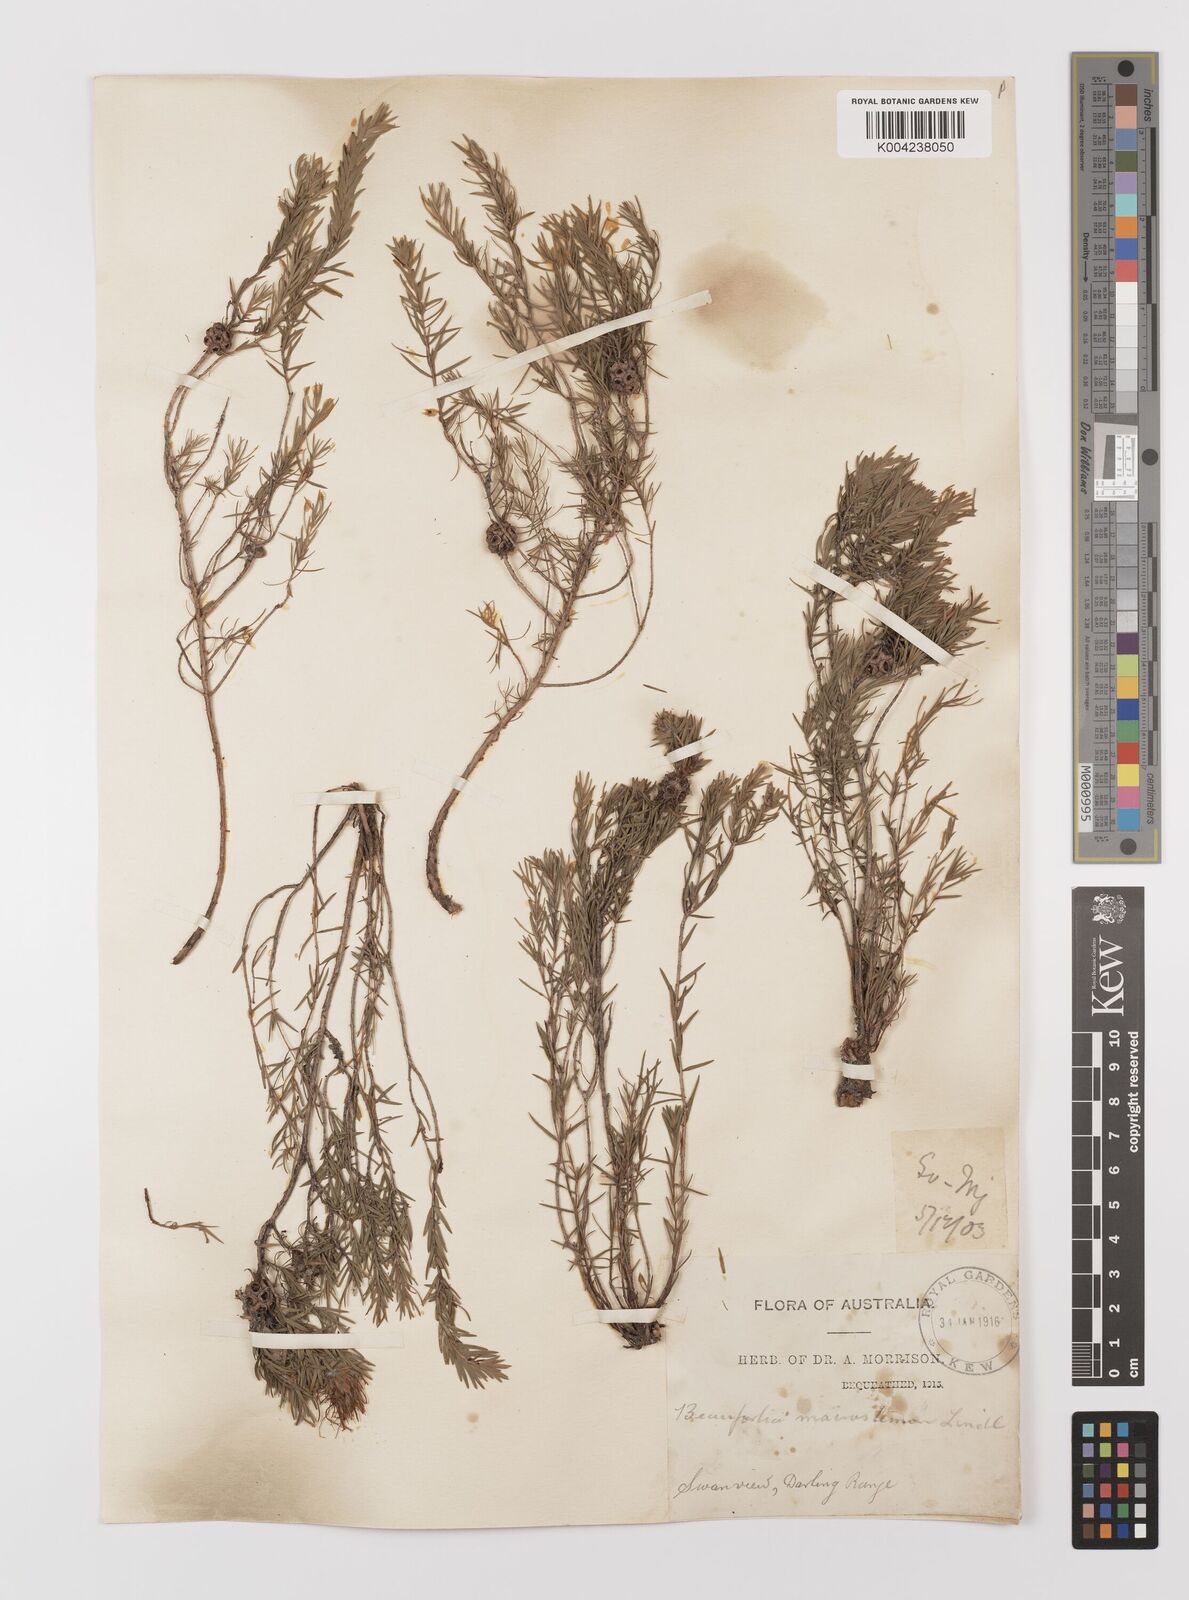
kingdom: Plantae
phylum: Tracheophyta
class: Magnoliopsida
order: Myrtales
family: Myrtaceae
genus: Melaleuca
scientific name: Melaleuca macrostemon
